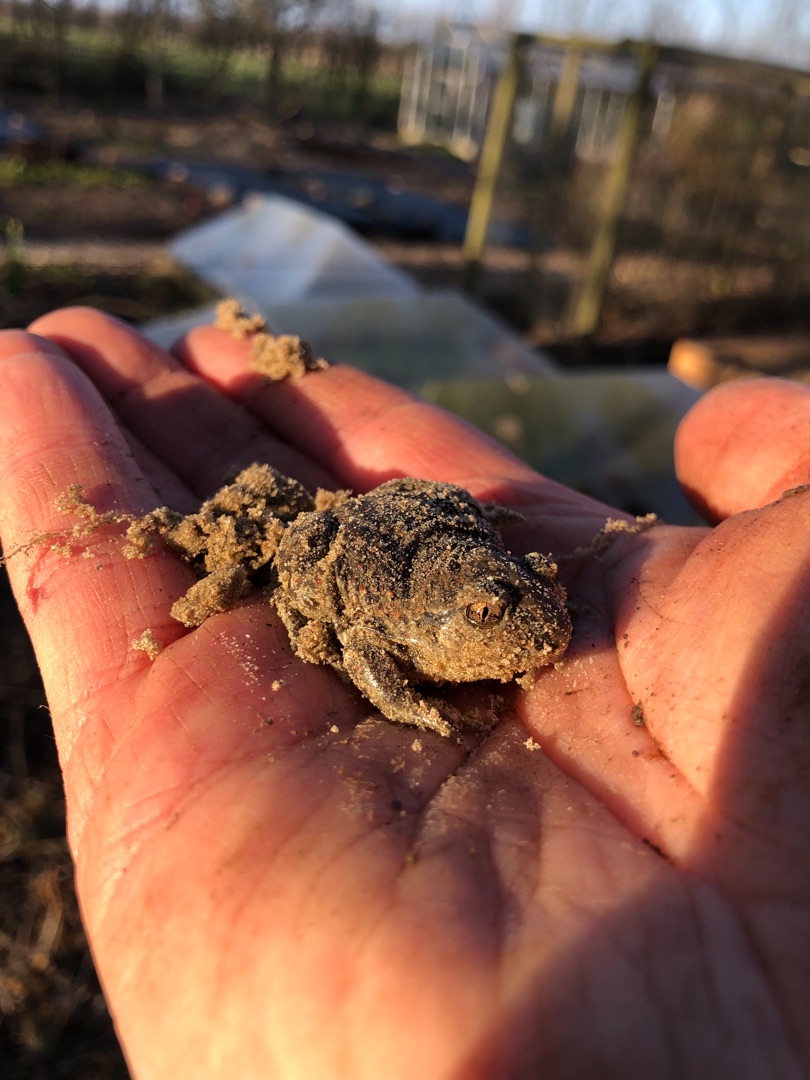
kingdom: Animalia
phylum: Chordata
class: Amphibia
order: Anura
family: Pelobatidae
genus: Pelobates
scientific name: Pelobates fuscus
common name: Løgfrø
